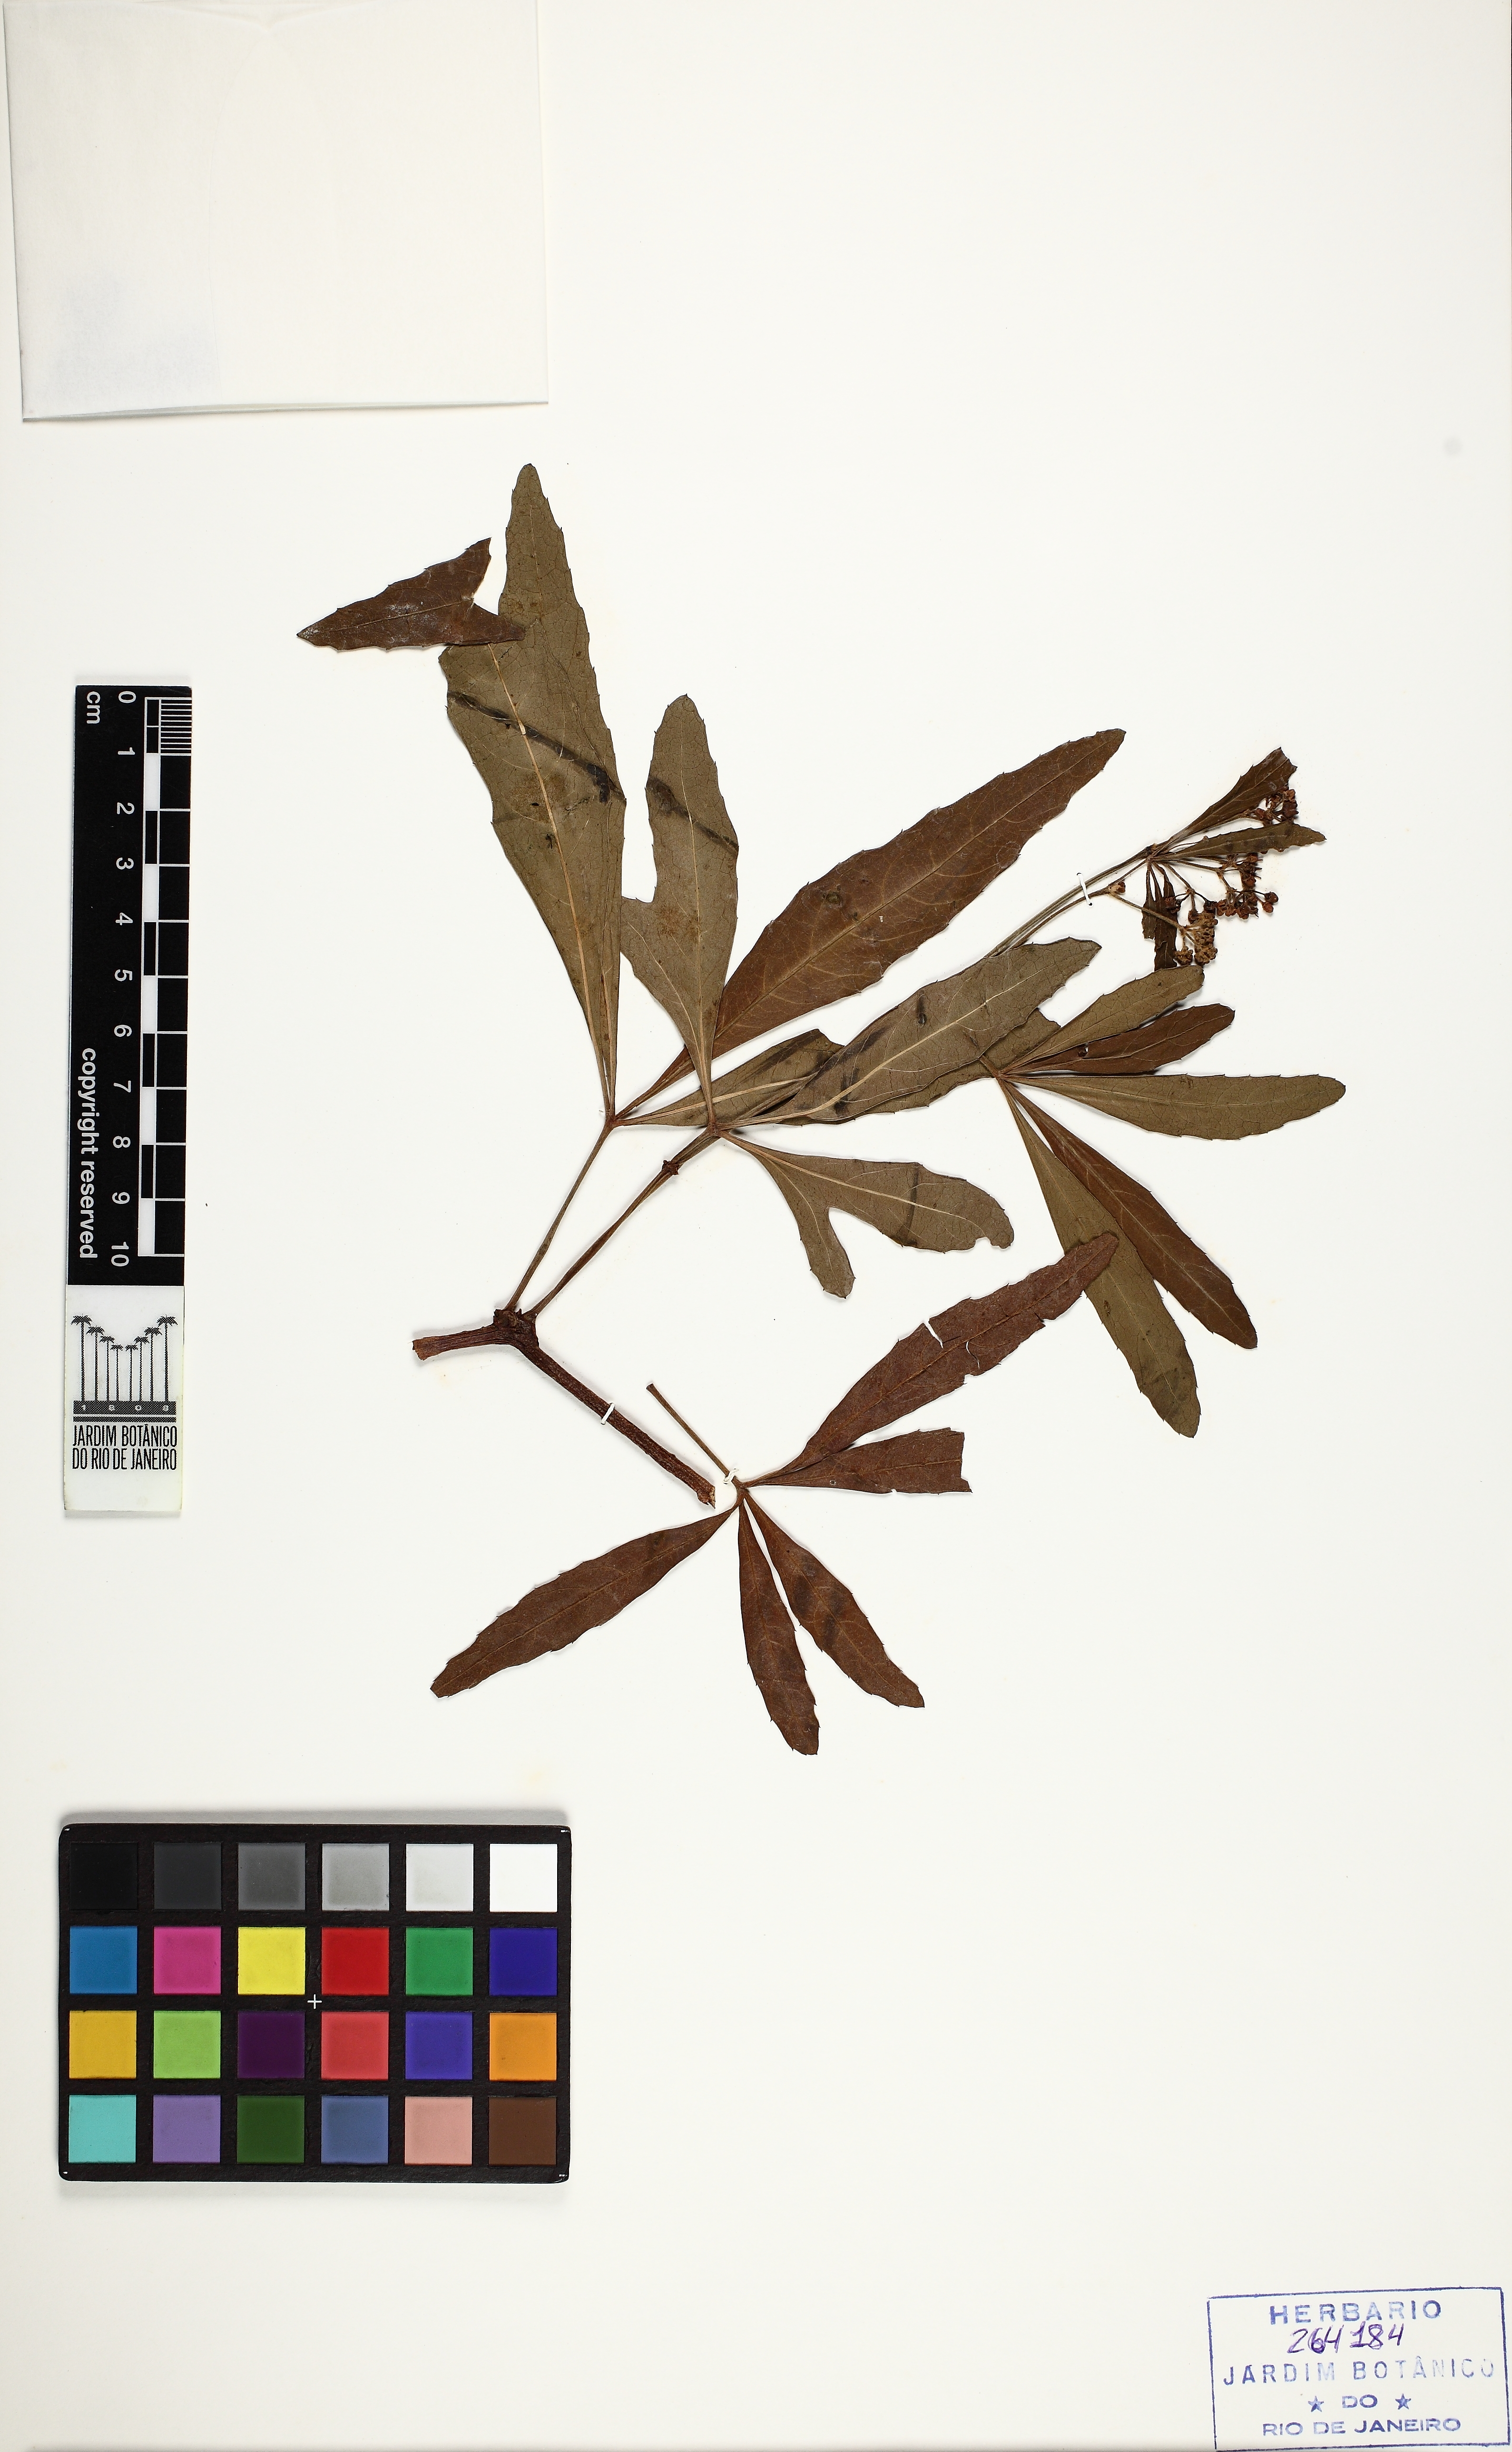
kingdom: Plantae
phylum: Tracheophyta
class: Magnoliopsida
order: Vitales
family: Vitaceae
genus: Cissus
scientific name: Cissus palmata
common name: Grape
